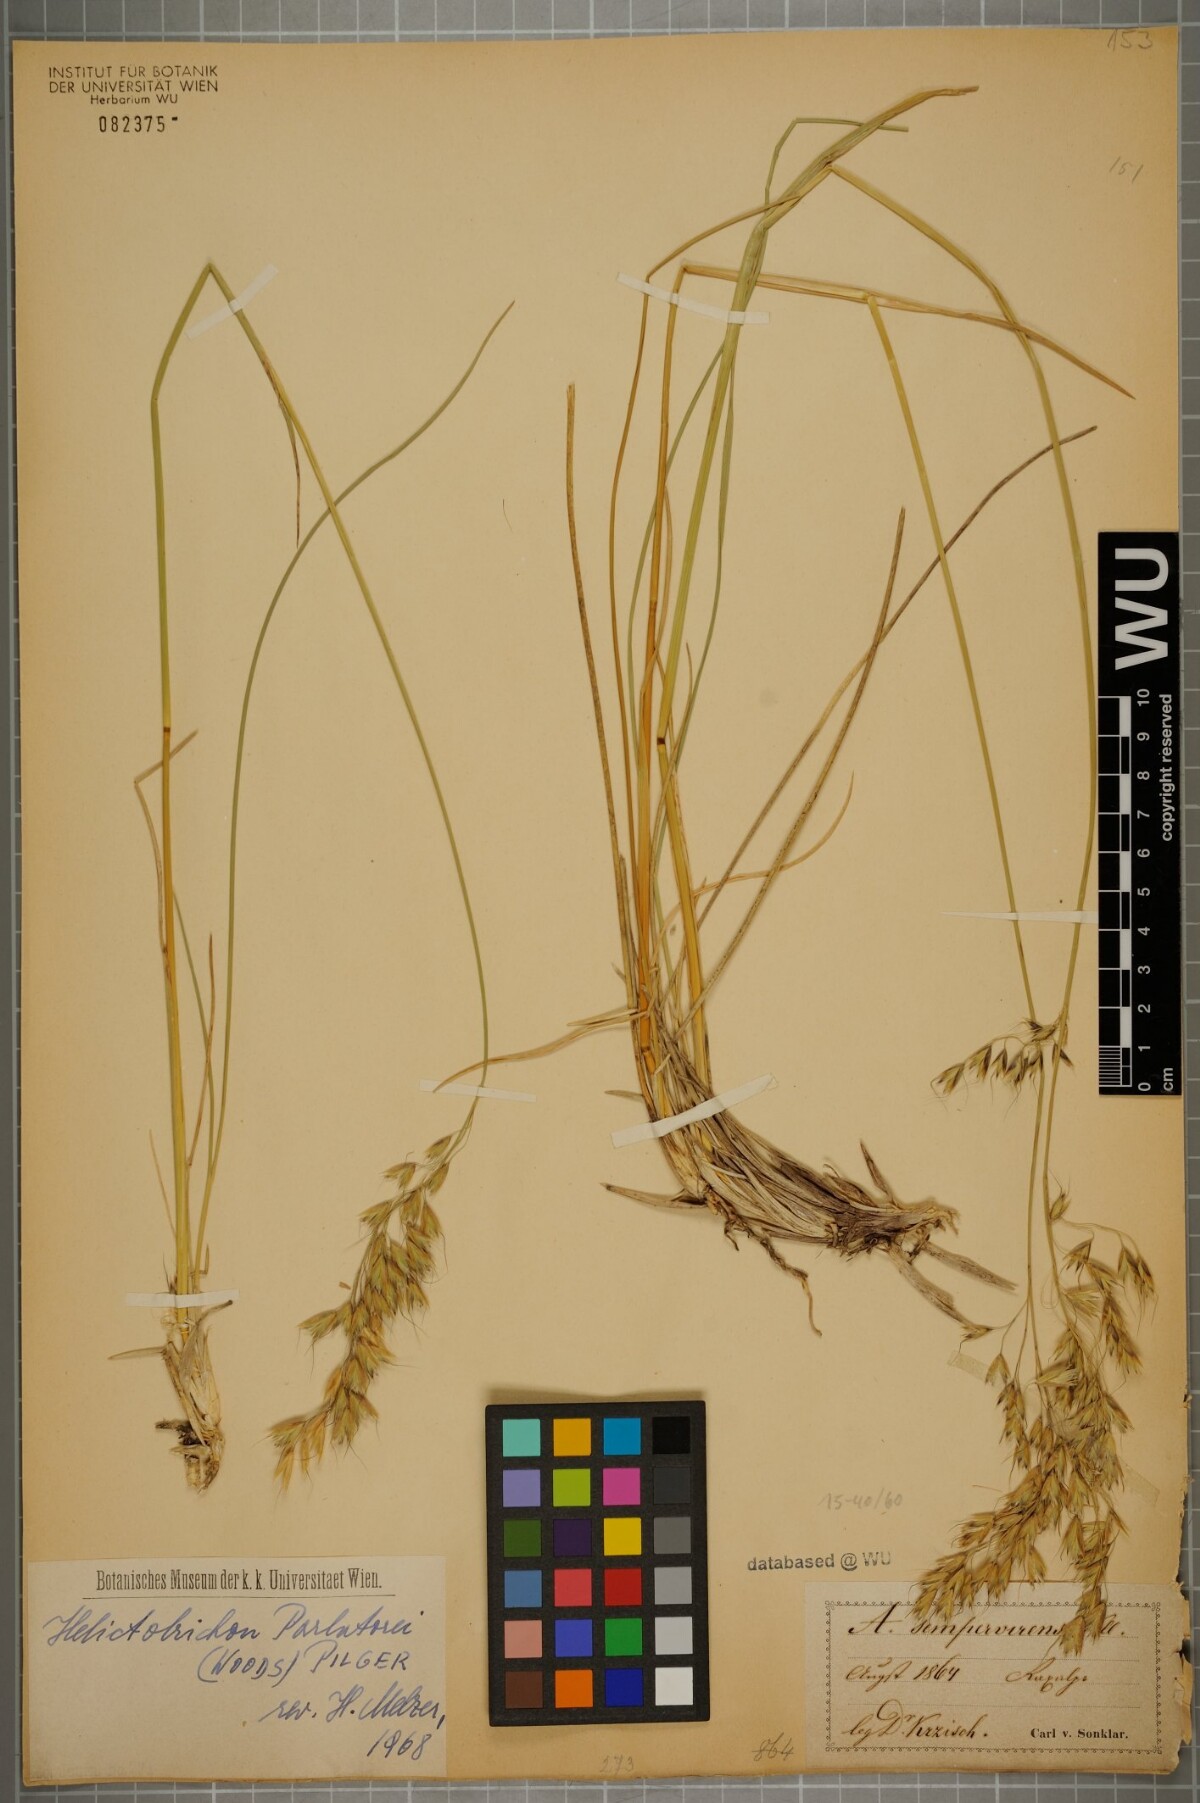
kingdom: Plantae
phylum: Tracheophyta
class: Liliopsida
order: Poales
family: Poaceae
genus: Helictotrichon
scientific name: Helictotrichon parlatorei
